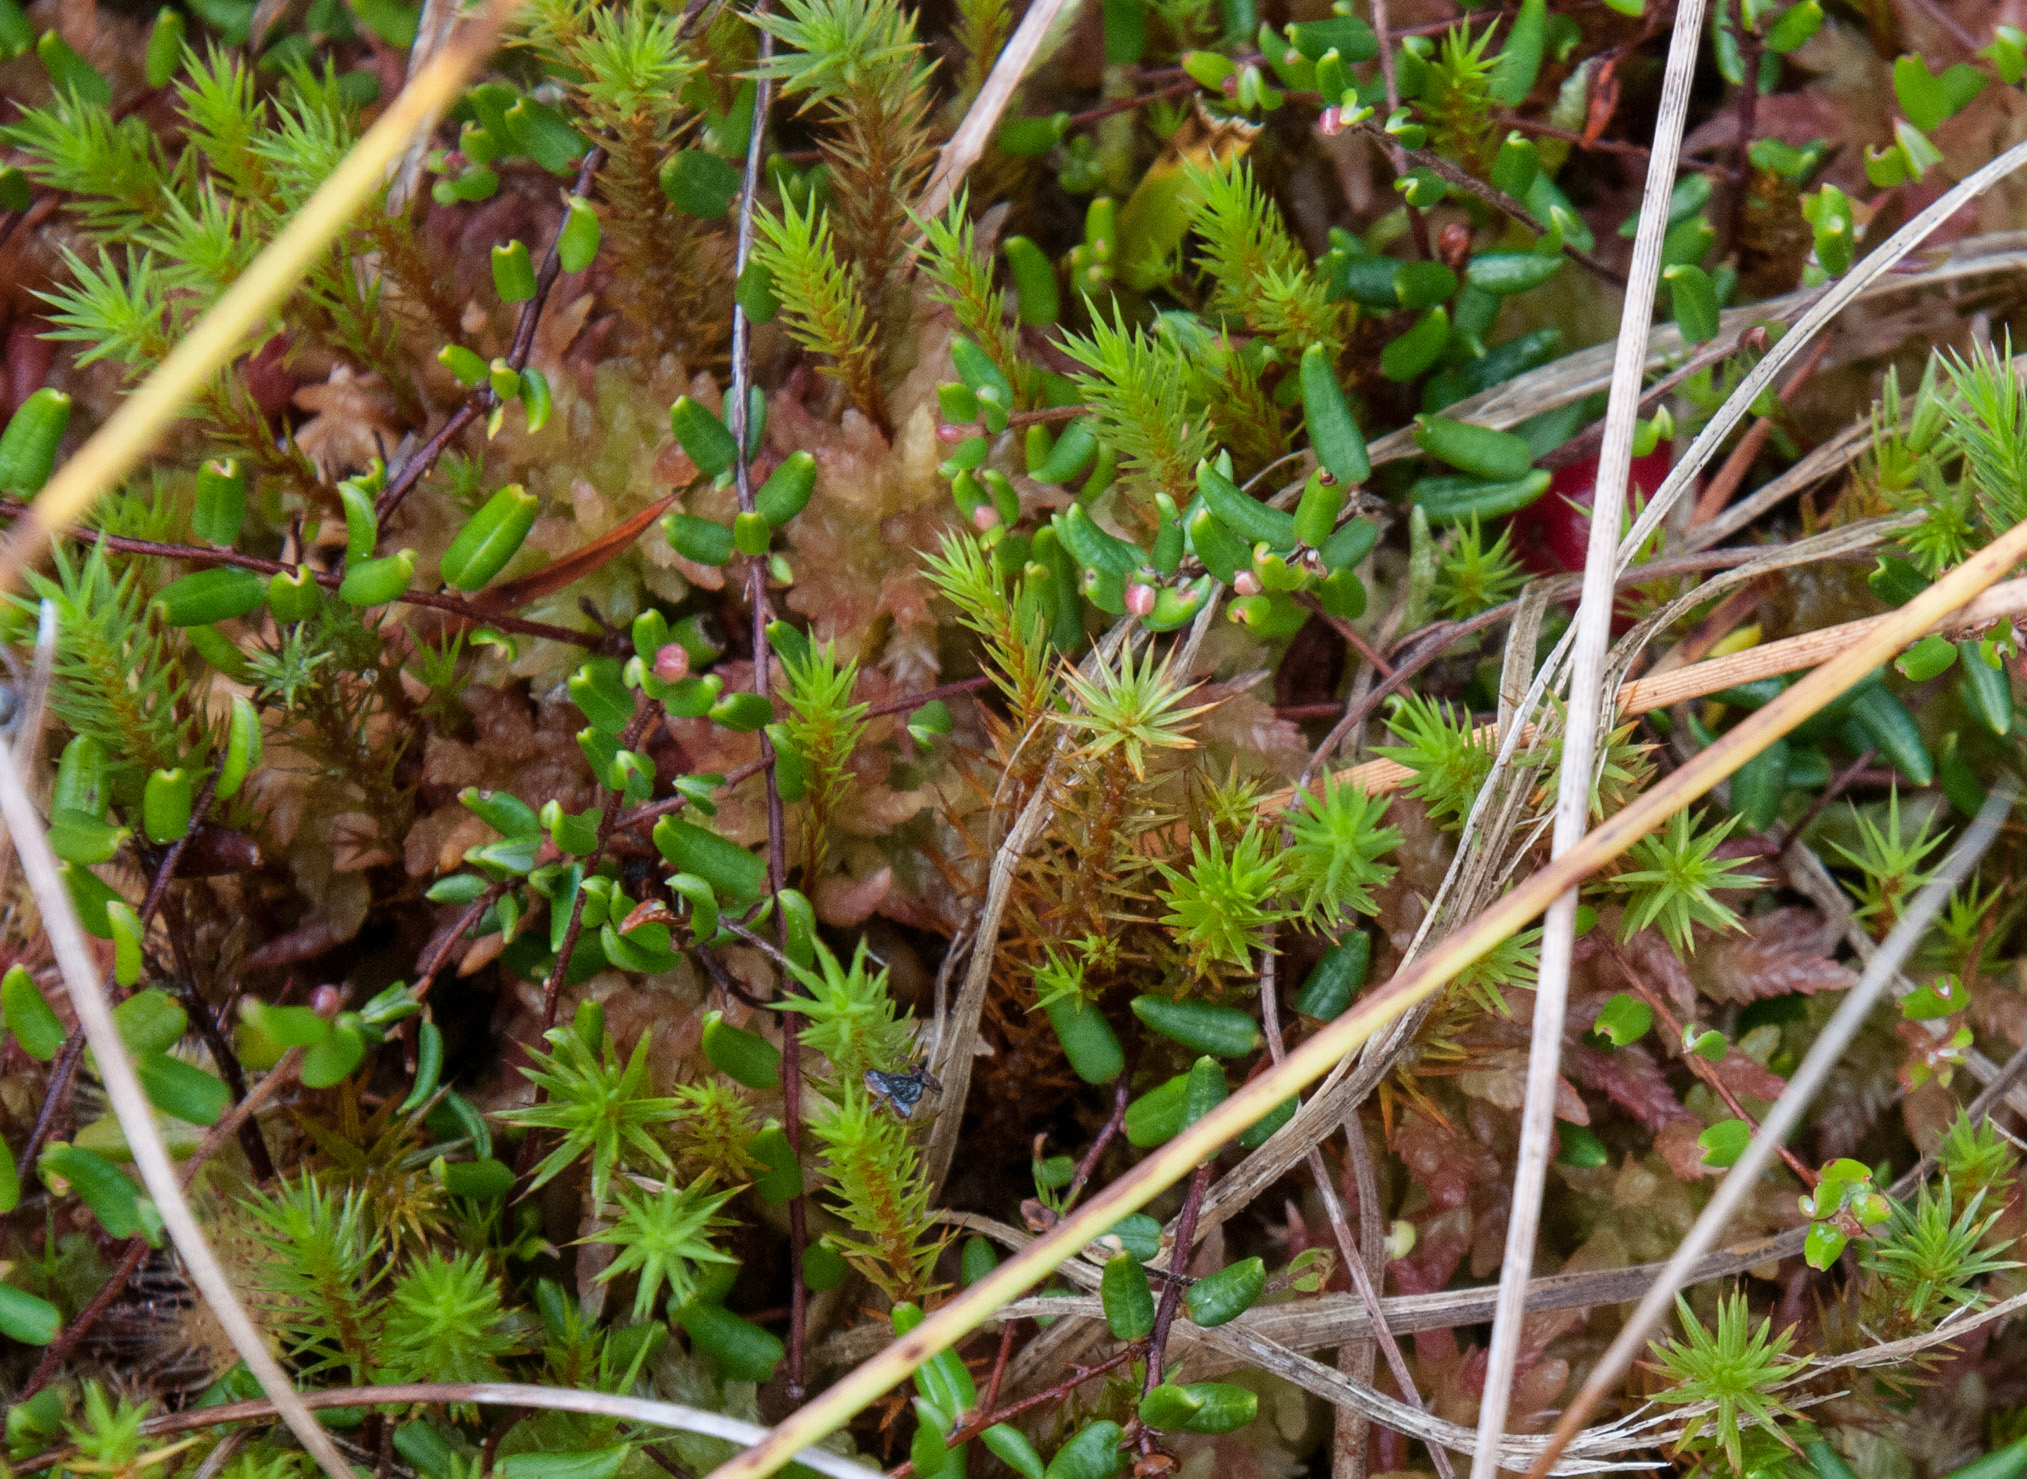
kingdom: Plantae
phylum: Tracheophyta
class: Magnoliopsida
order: Ericales
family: Ericaceae
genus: Vaccinium
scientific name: Vaccinium oxycoccos
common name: Cranberry
